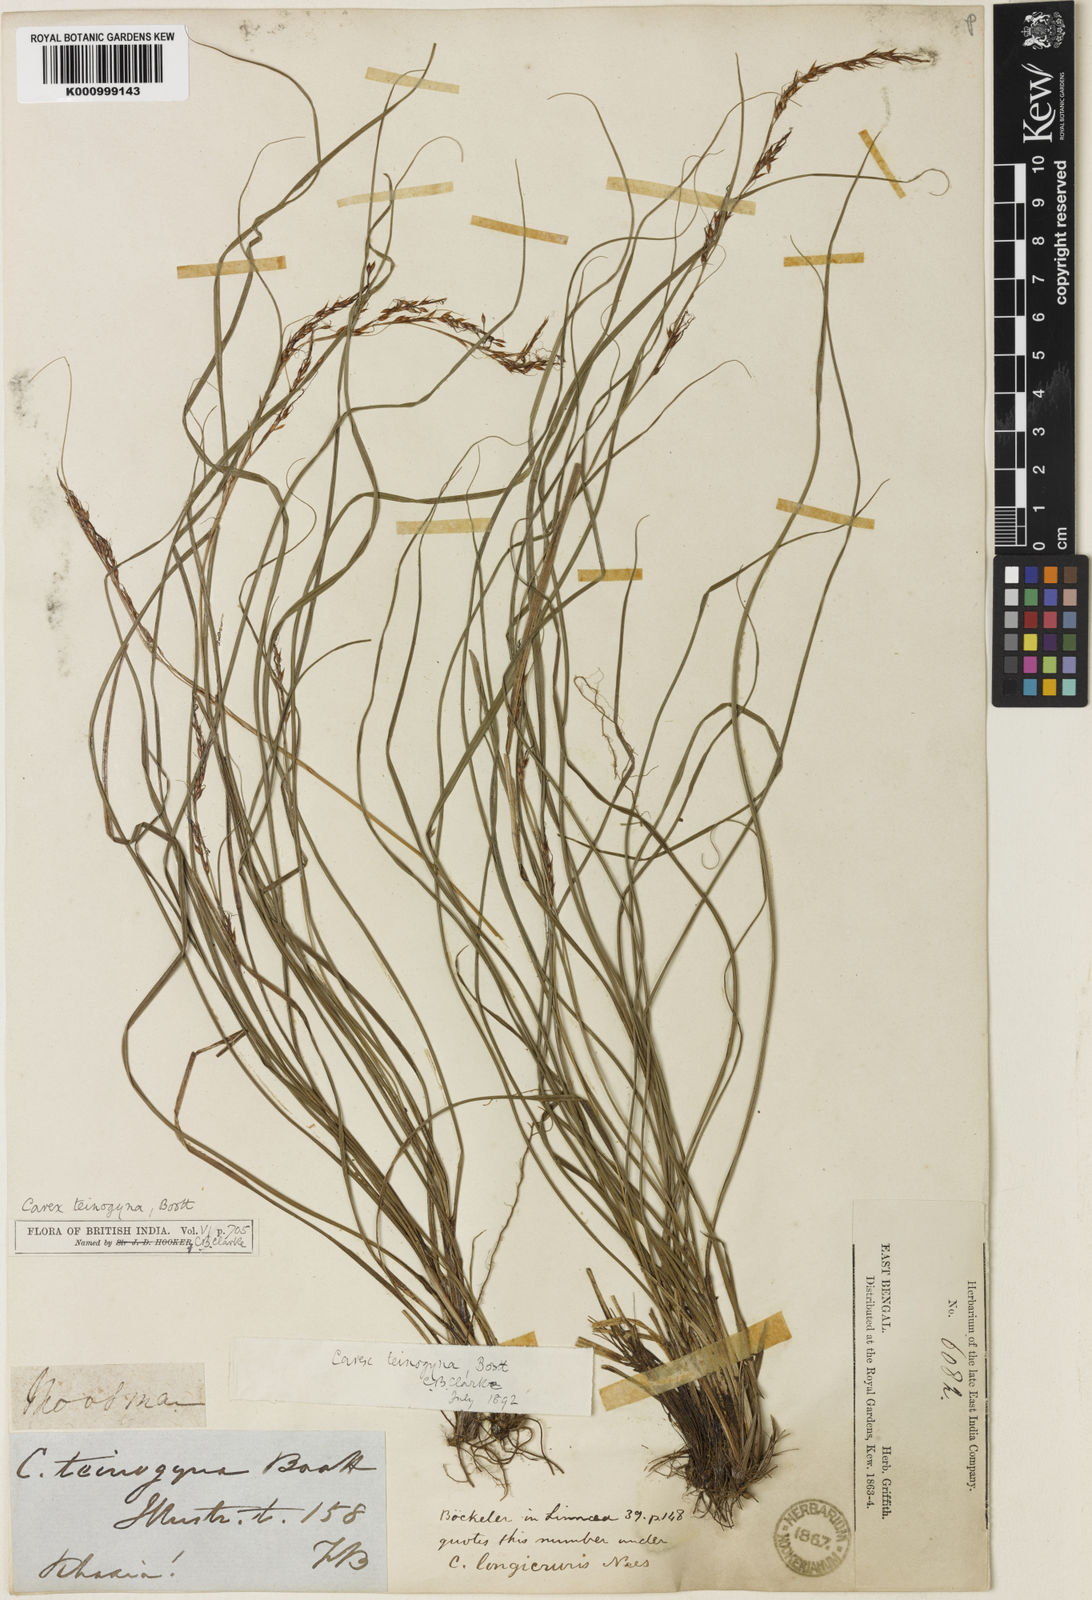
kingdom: Plantae
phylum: Tracheophyta
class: Liliopsida
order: Poales
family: Cyperaceae
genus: Carex
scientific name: Carex teinogyna
